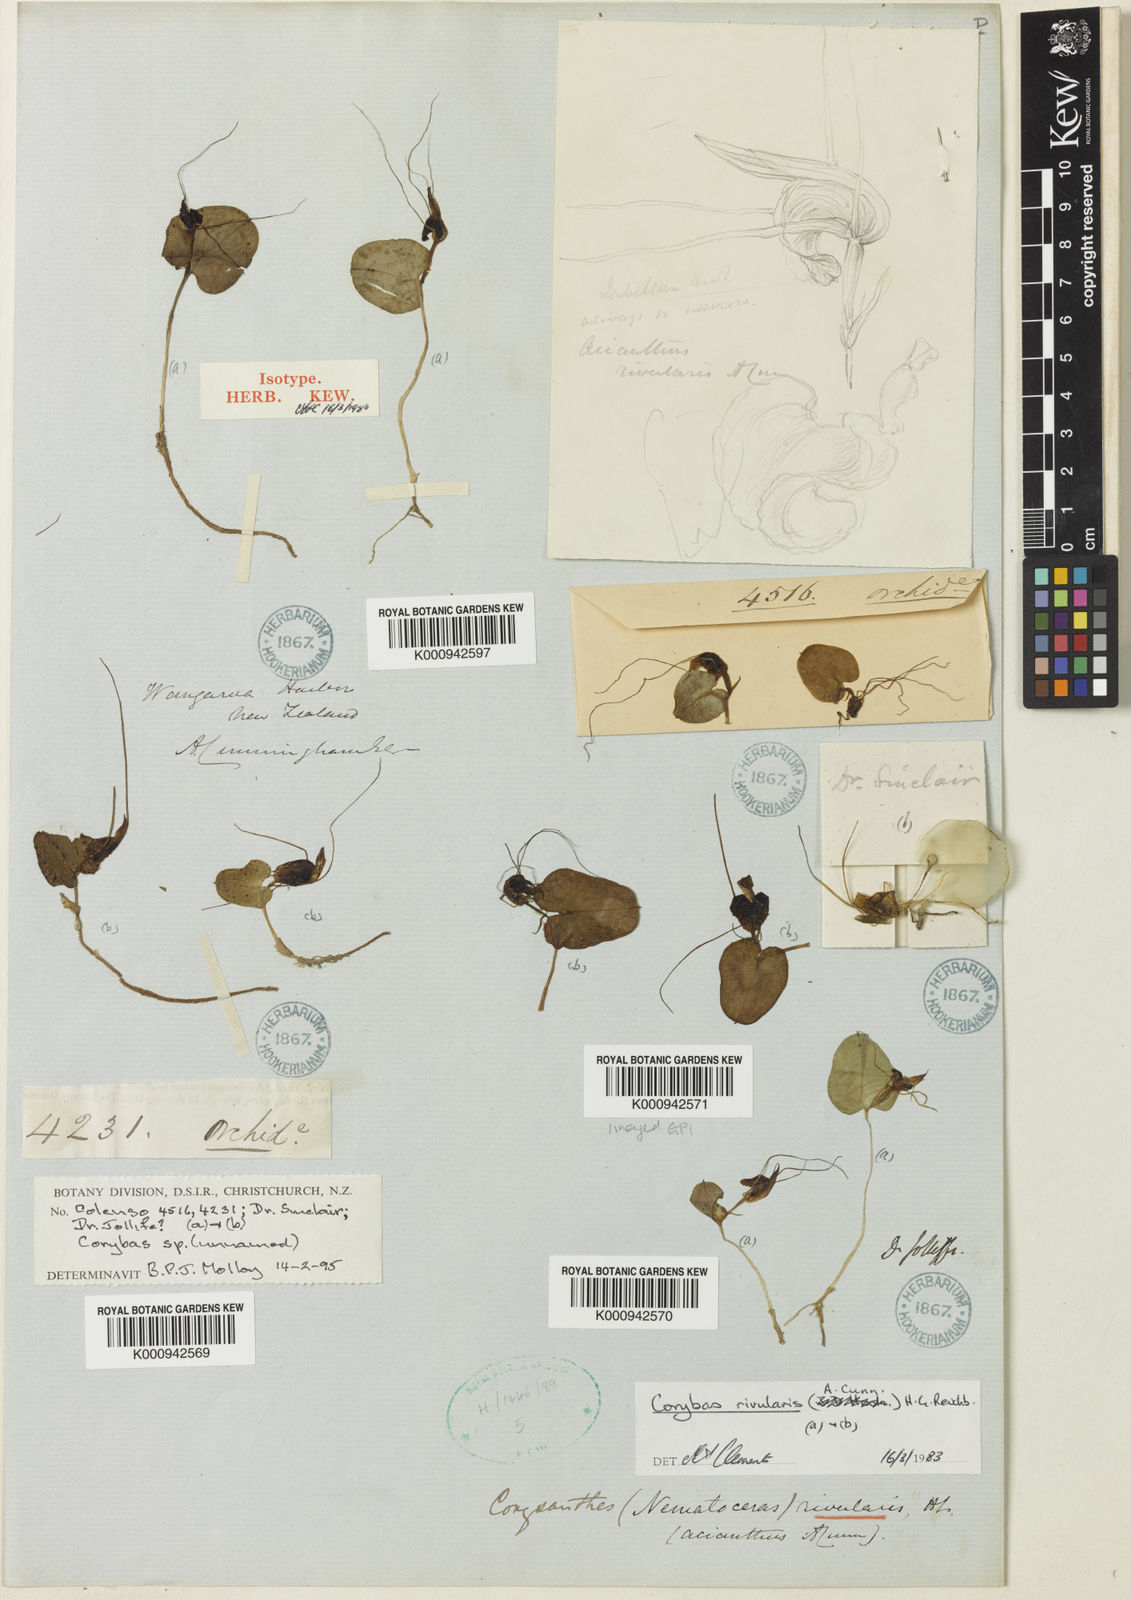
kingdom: Plantae
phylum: Tracheophyta
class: Liliopsida
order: Asparagales
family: Orchidaceae
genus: Corybas
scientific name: Corybas rivularis
